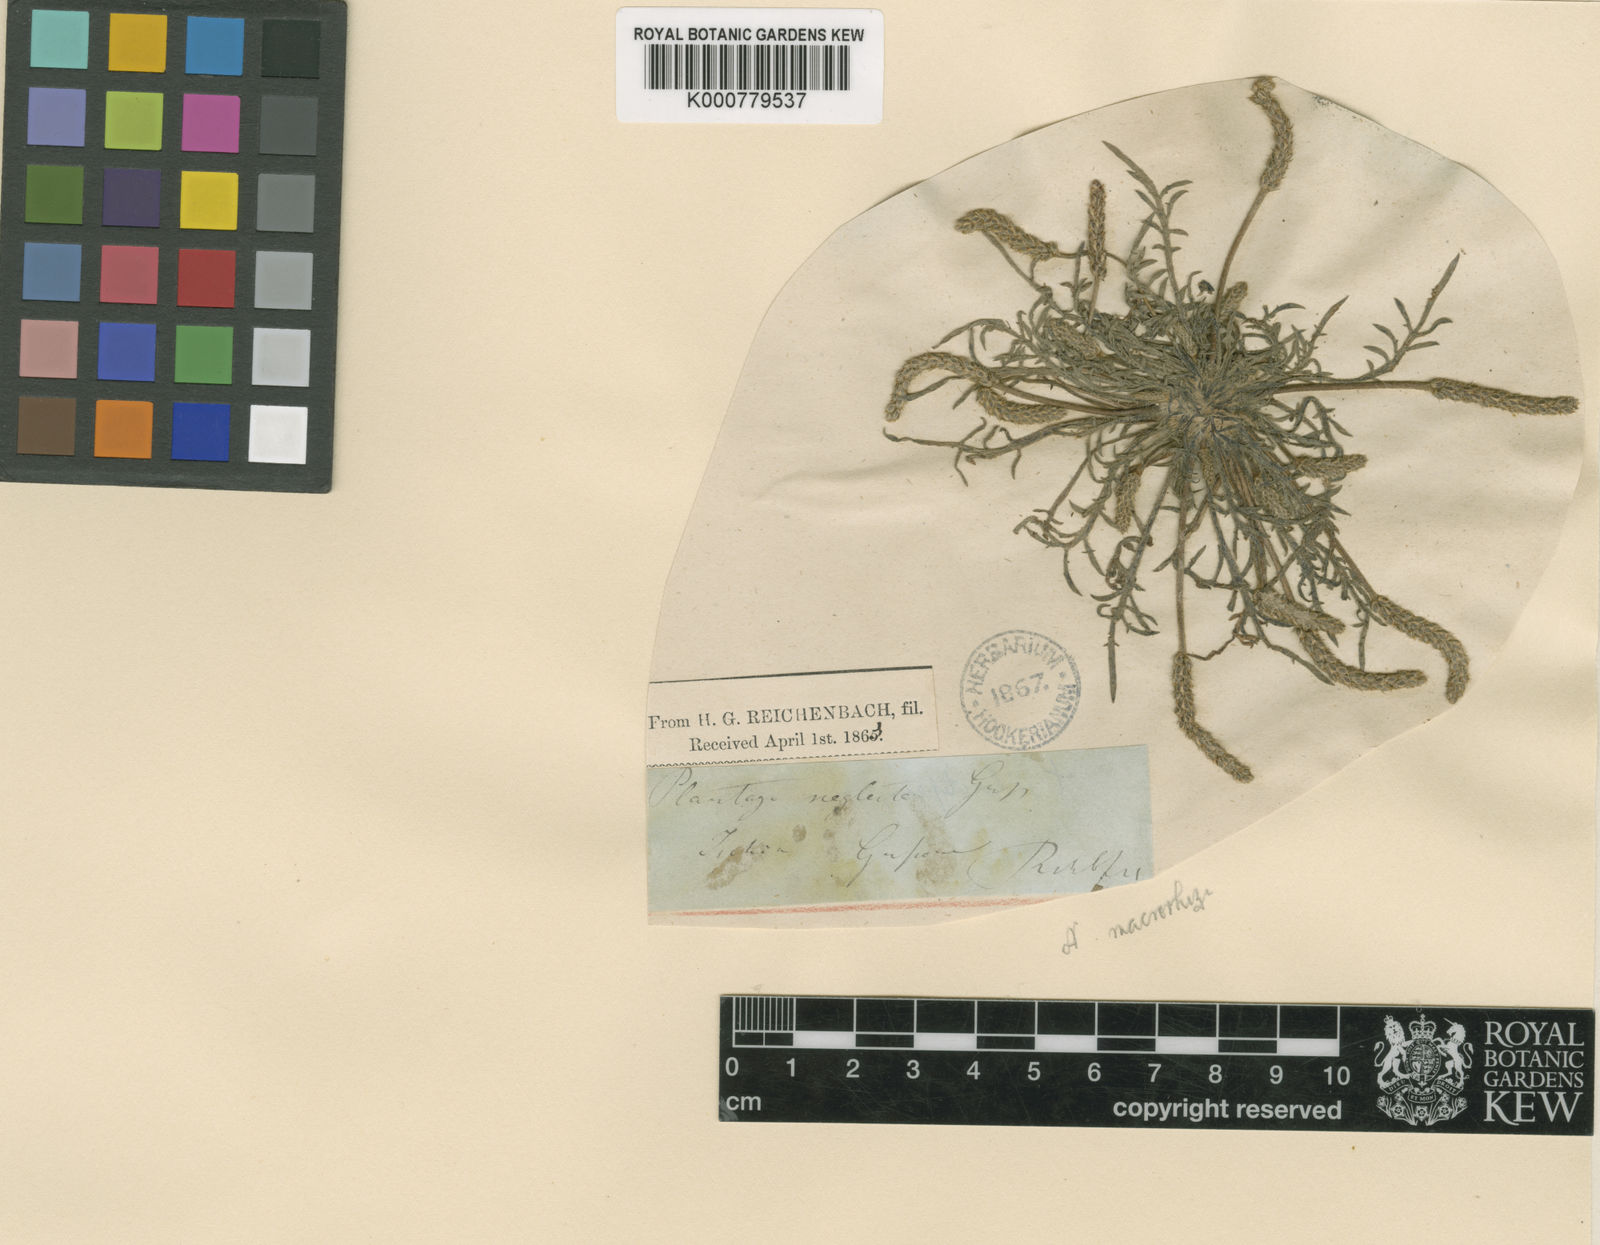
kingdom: Plantae
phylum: Tracheophyta
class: Magnoliopsida
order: Lamiales
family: Plantaginaceae
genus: Plantago
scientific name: Plantago macrorhiza
